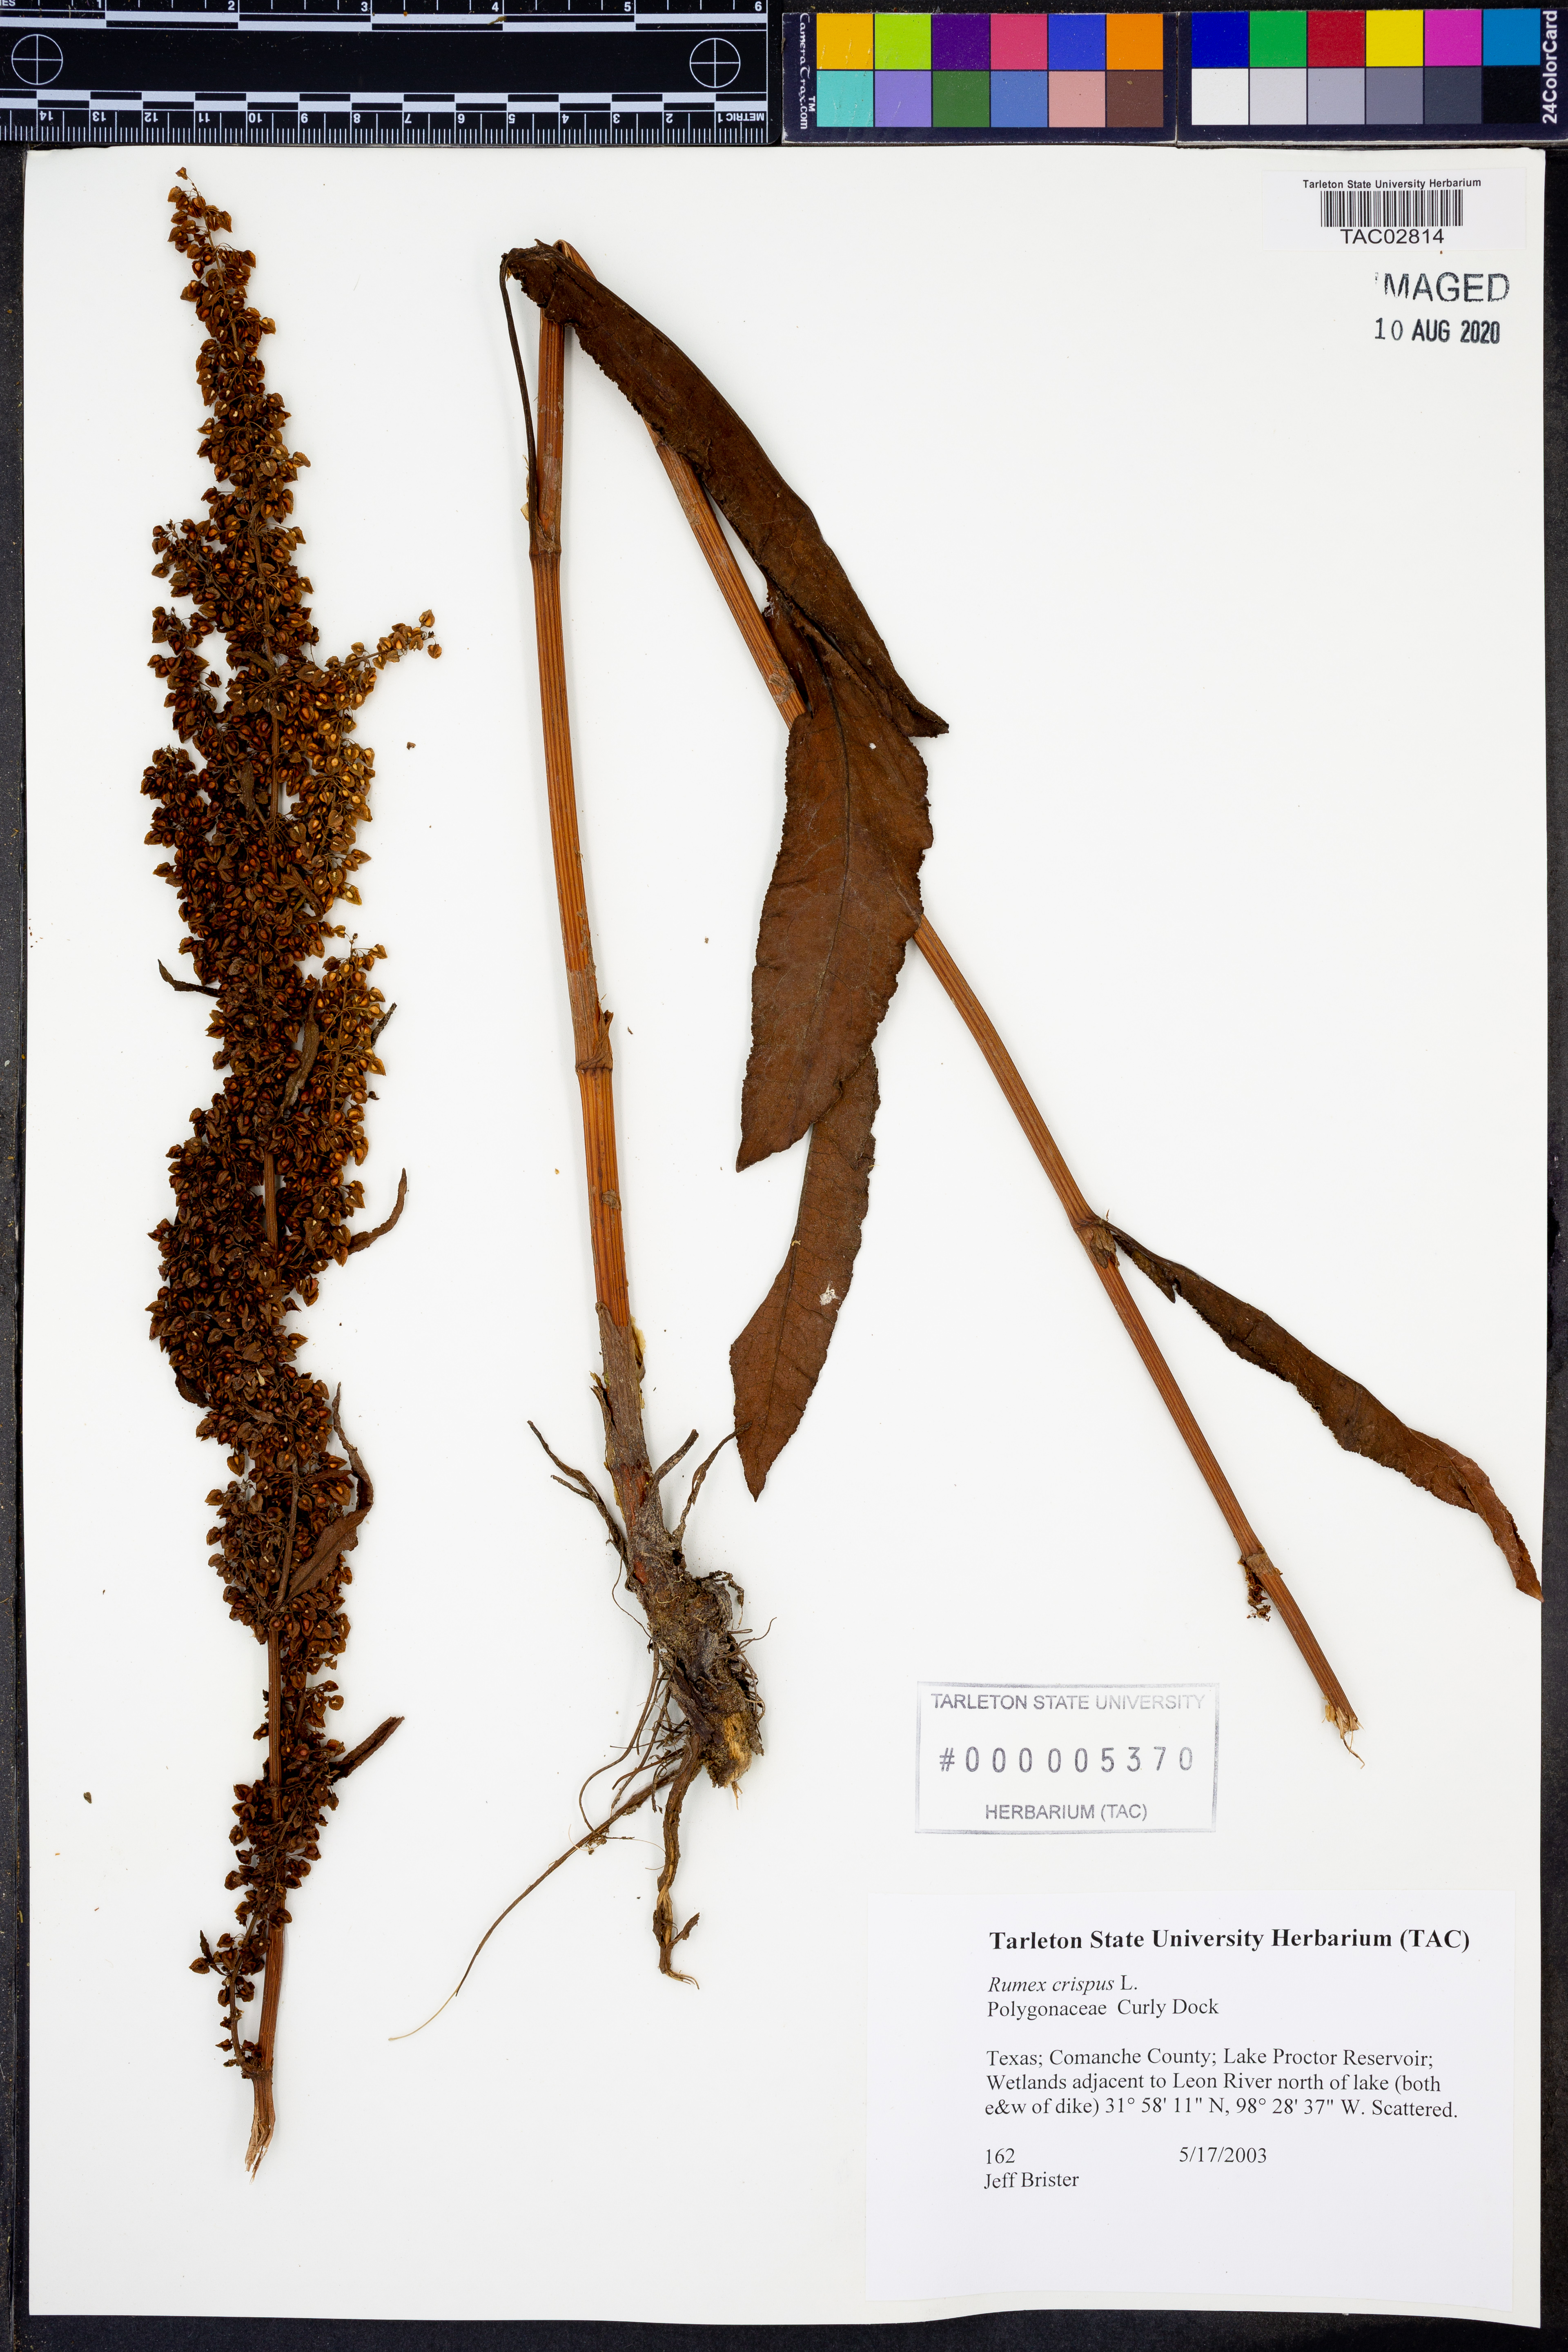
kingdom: Plantae
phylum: Tracheophyta
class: Magnoliopsida
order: Caryophyllales
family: Polygonaceae
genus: Rumex
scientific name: Rumex crispus
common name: Curled dock
